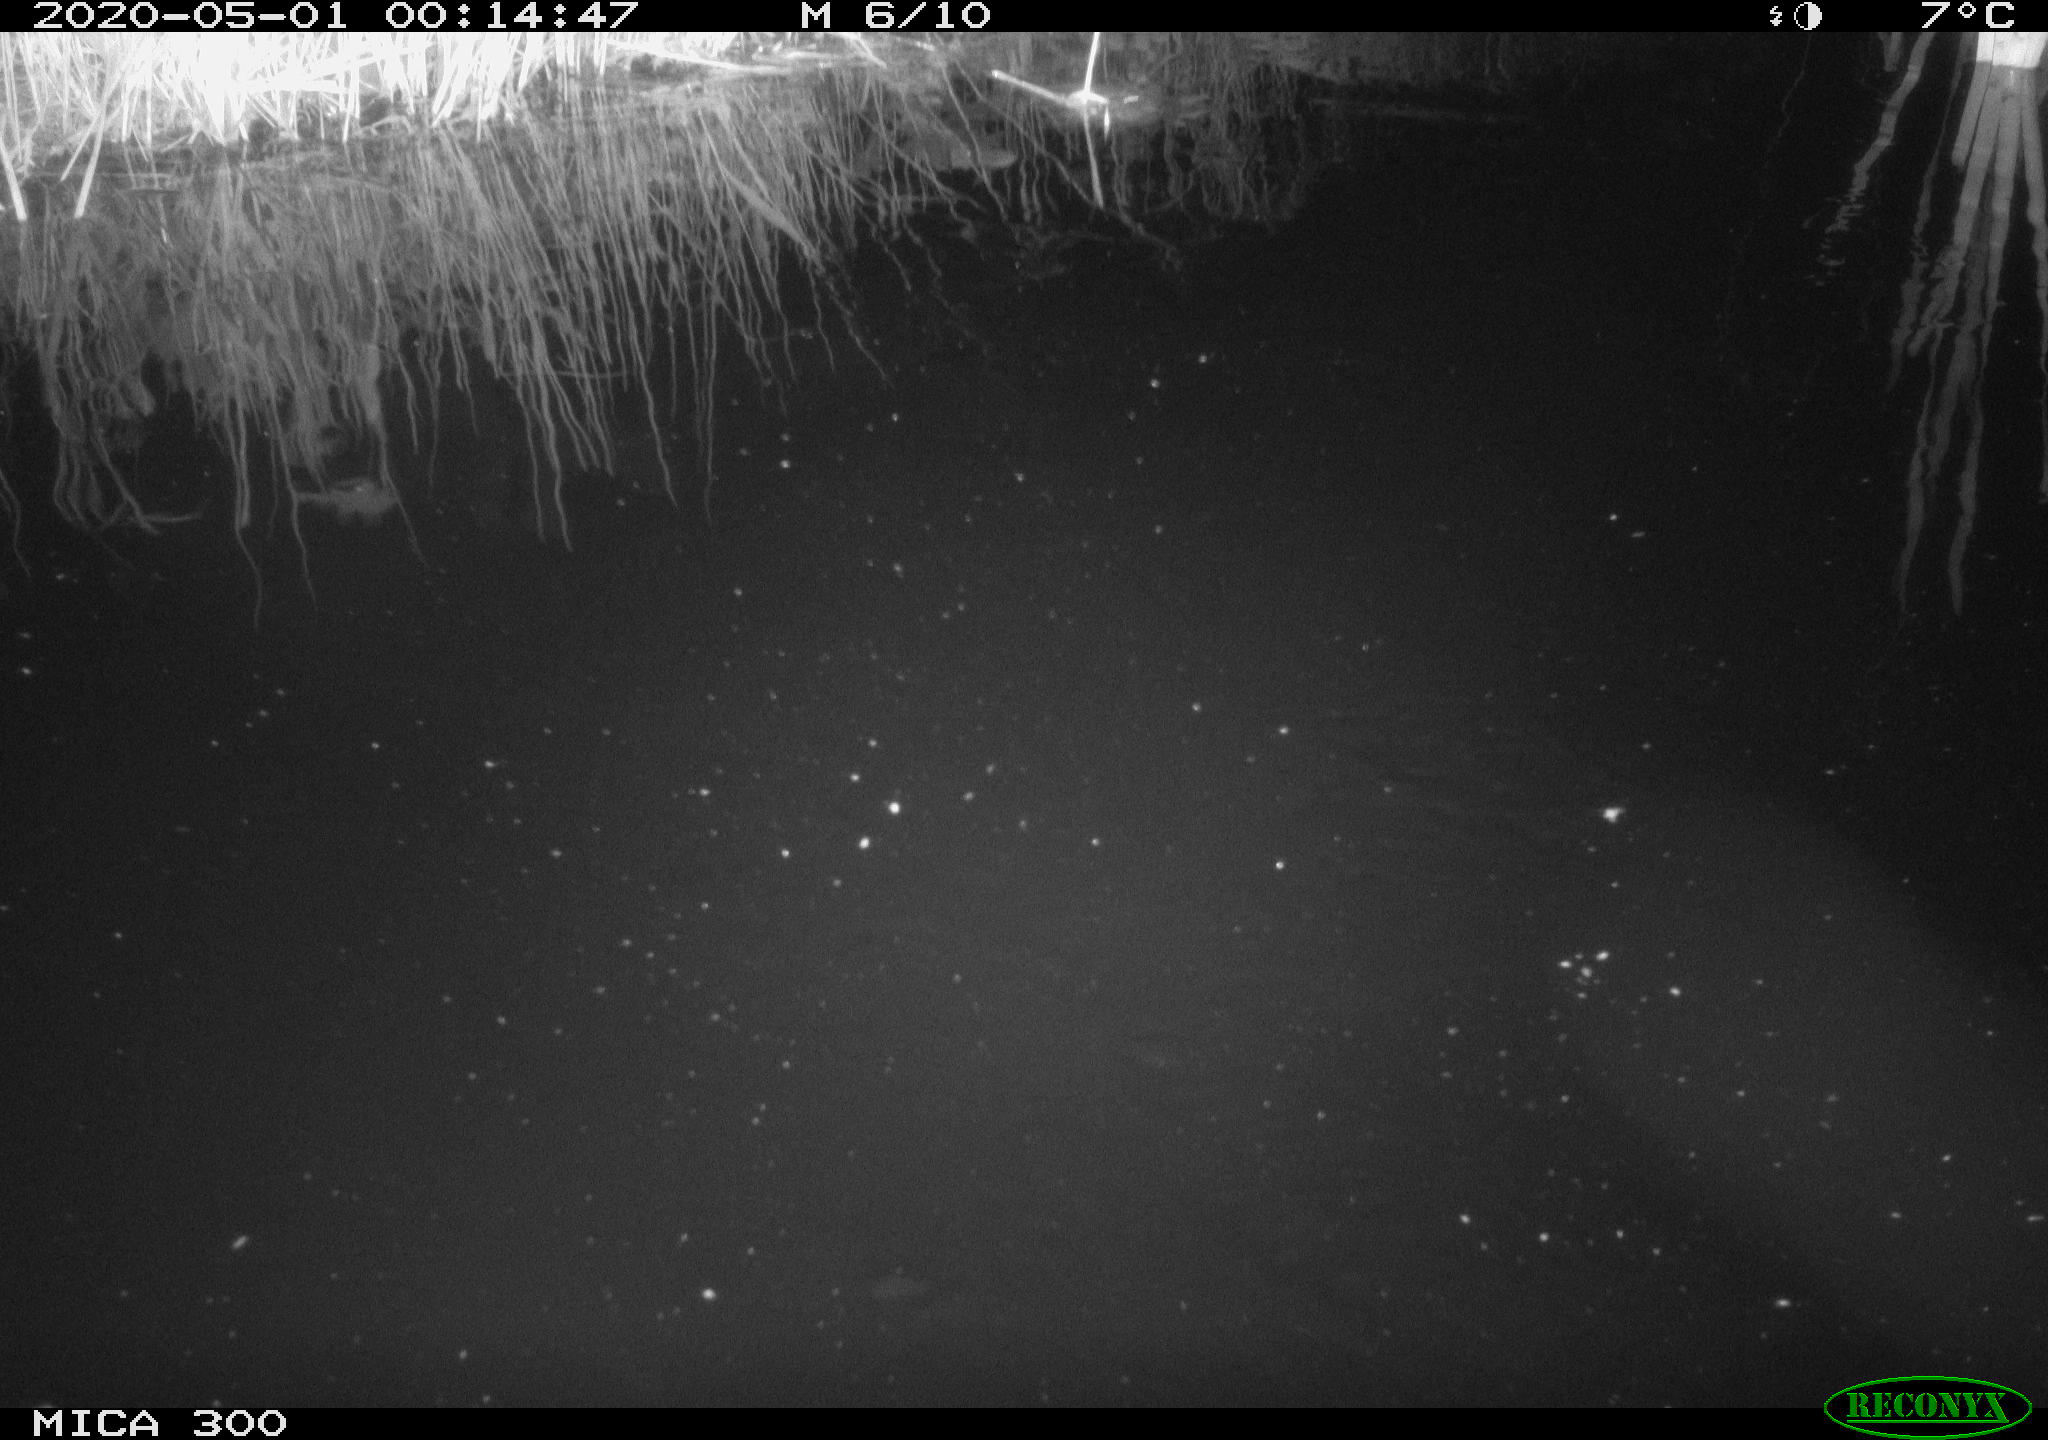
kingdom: Animalia
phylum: Chordata
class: Mammalia
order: Rodentia
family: Castoridae
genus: Castor
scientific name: Castor fiber
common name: Eurasian beaver
